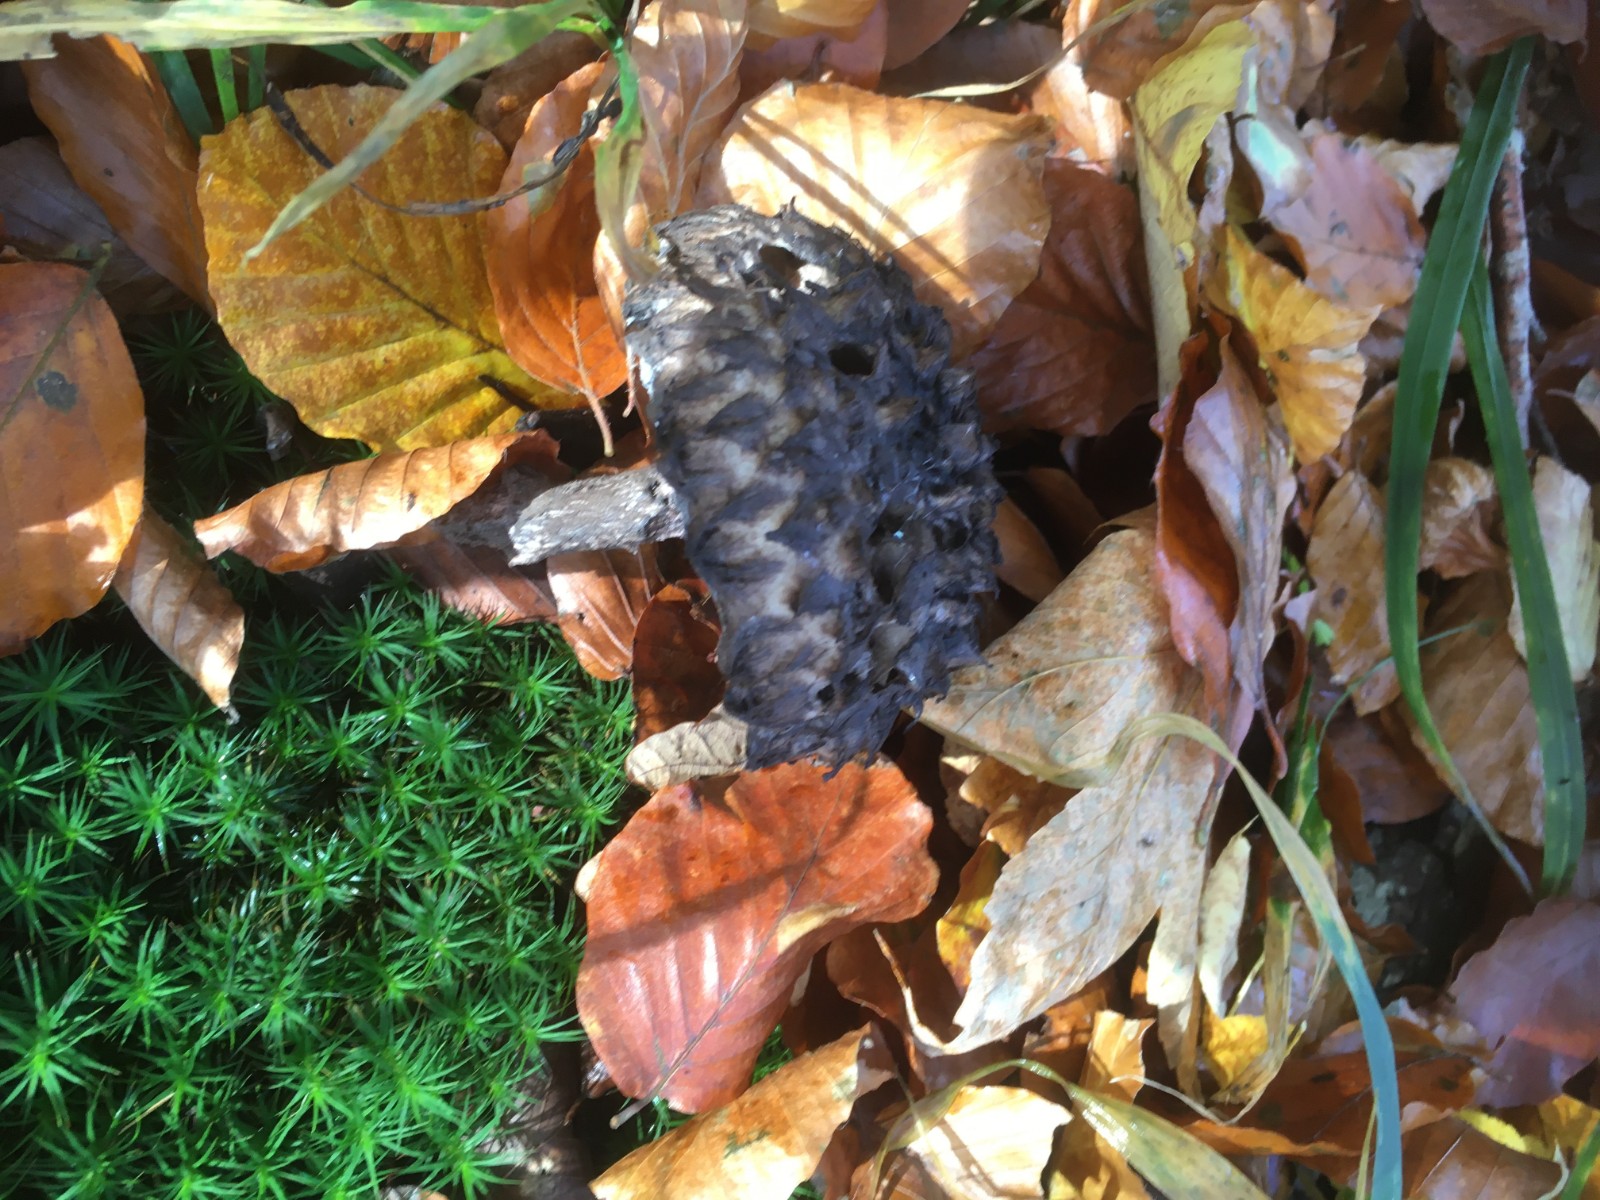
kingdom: Fungi
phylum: Basidiomycota
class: Agaricomycetes
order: Boletales
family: Boletaceae
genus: Strobilomyces
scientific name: Strobilomyces strobilaceus
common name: koglerørhat
